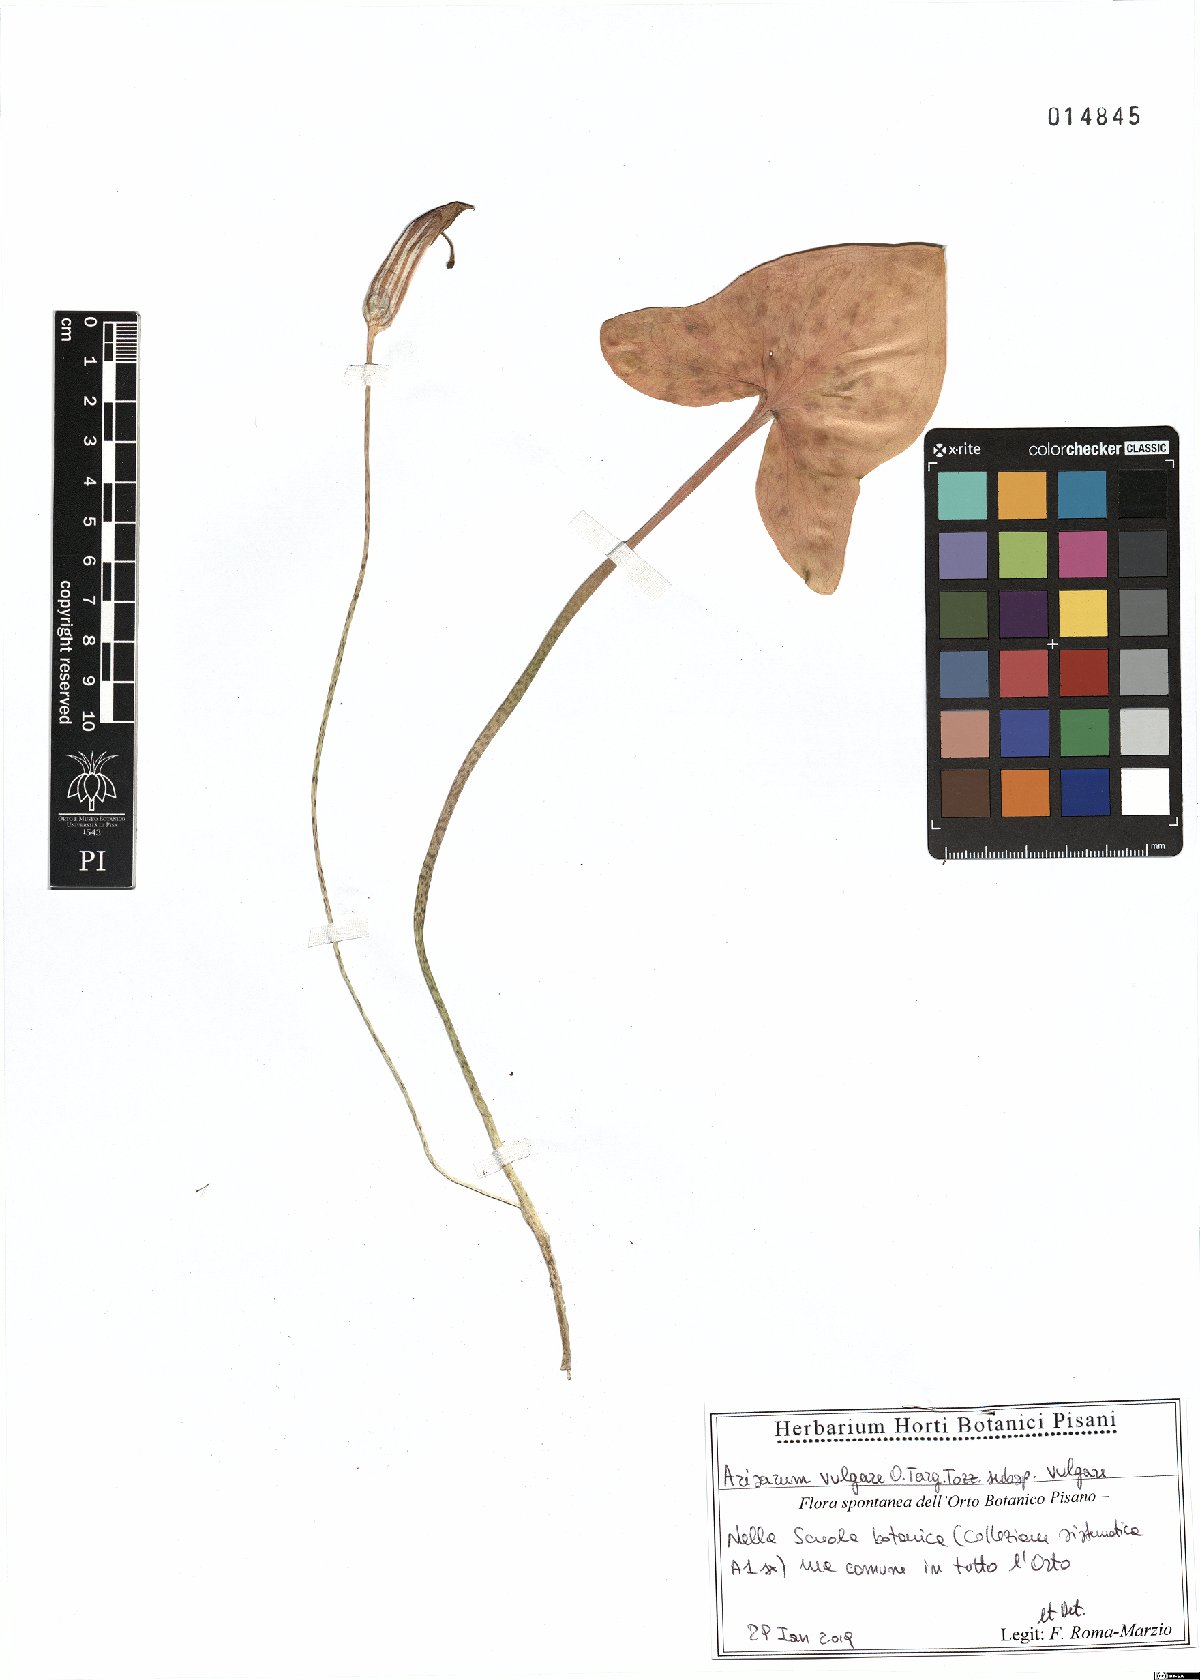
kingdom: Plantae
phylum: Tracheophyta
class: Liliopsida
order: Alismatales
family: Araceae
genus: Arisarum
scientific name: Arisarum vulgare
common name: Common arisarum
